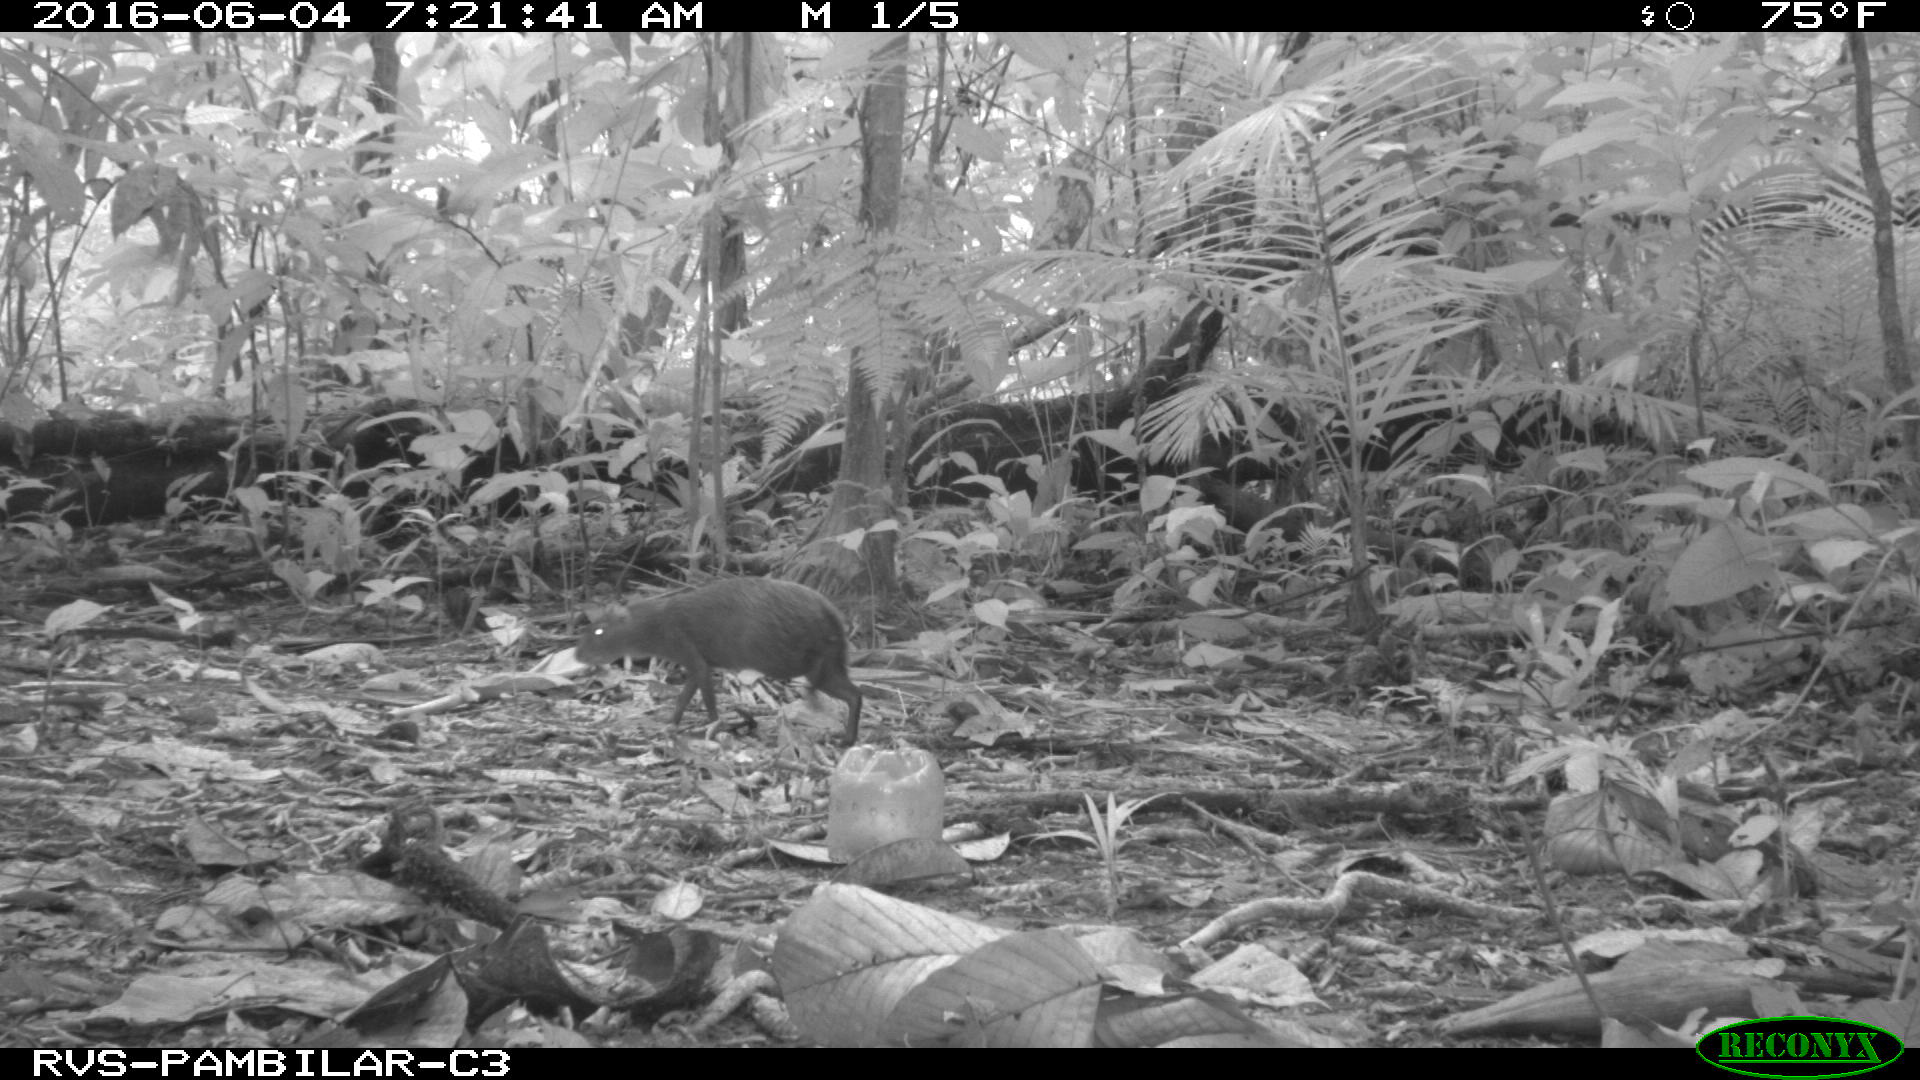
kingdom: Animalia
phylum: Chordata
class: Mammalia
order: Rodentia
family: Dasyproctidae
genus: Dasyprocta
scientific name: Dasyprocta punctata
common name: Central american agouti
